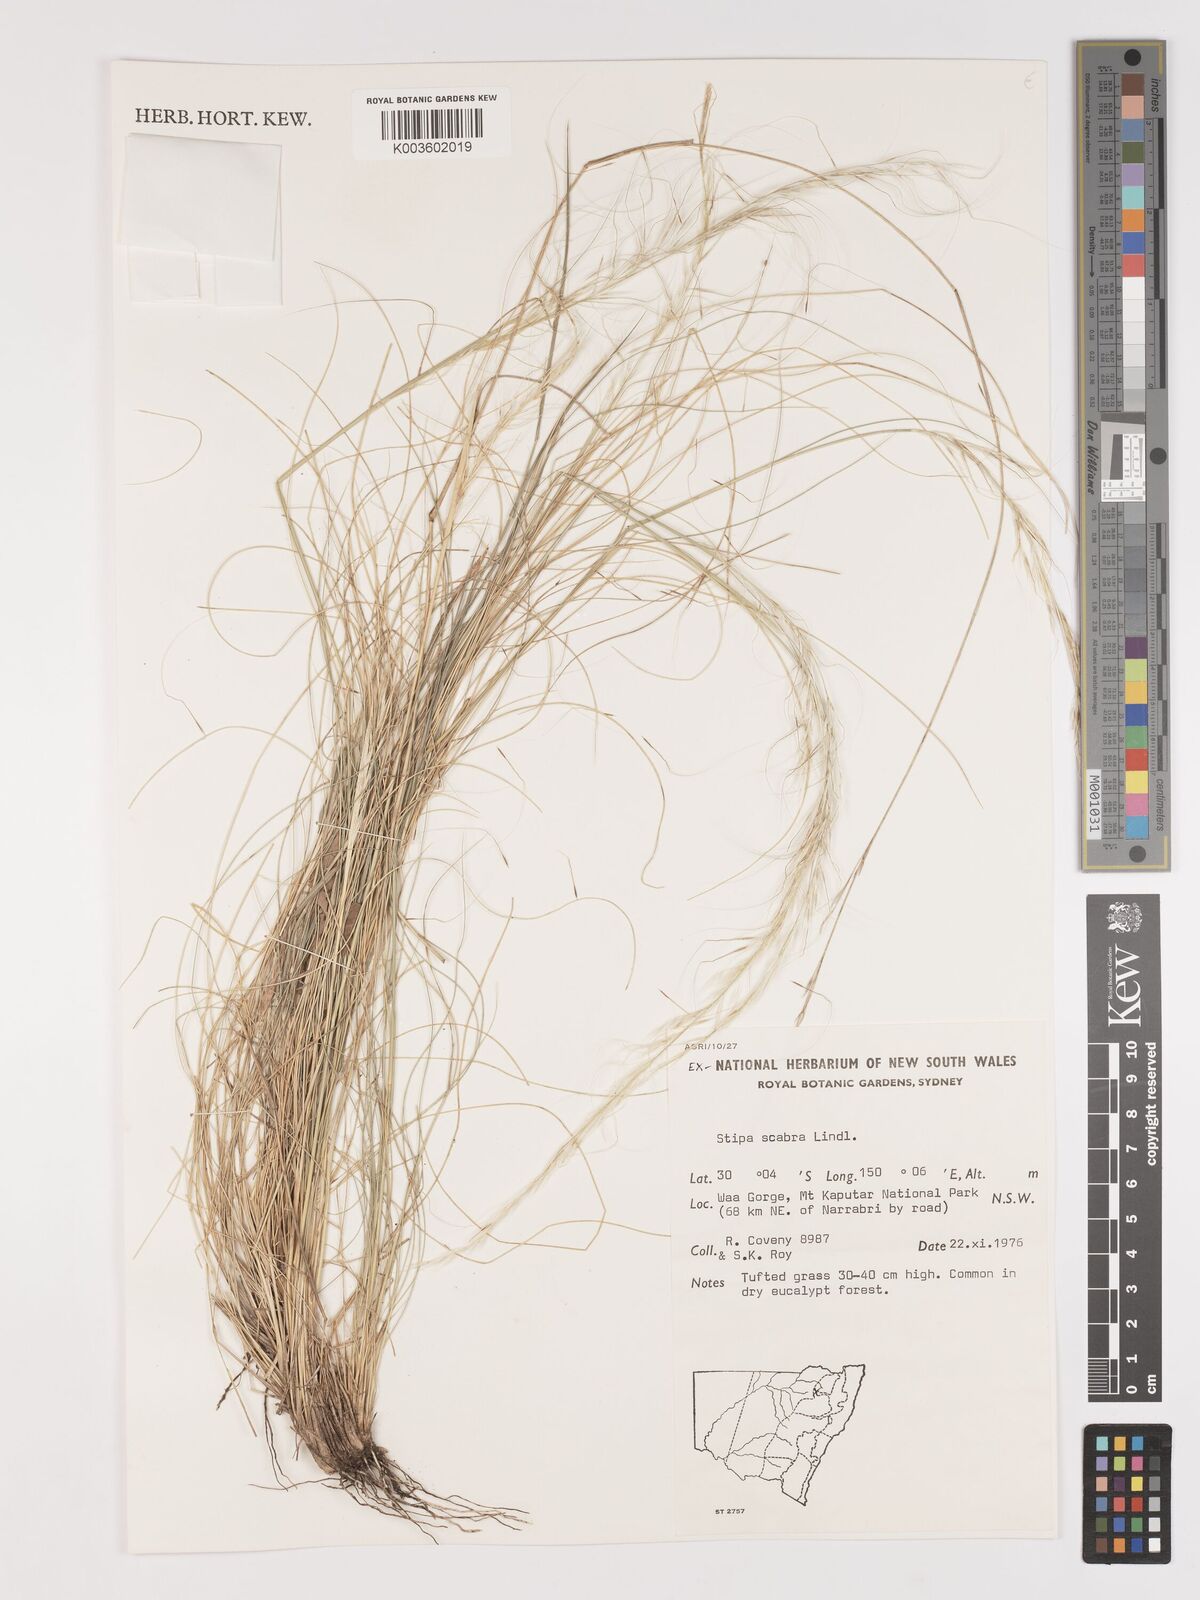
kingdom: Plantae
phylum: Tracheophyta
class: Liliopsida
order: Poales
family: Poaceae
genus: Austrostipa
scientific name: Austrostipa scabra
